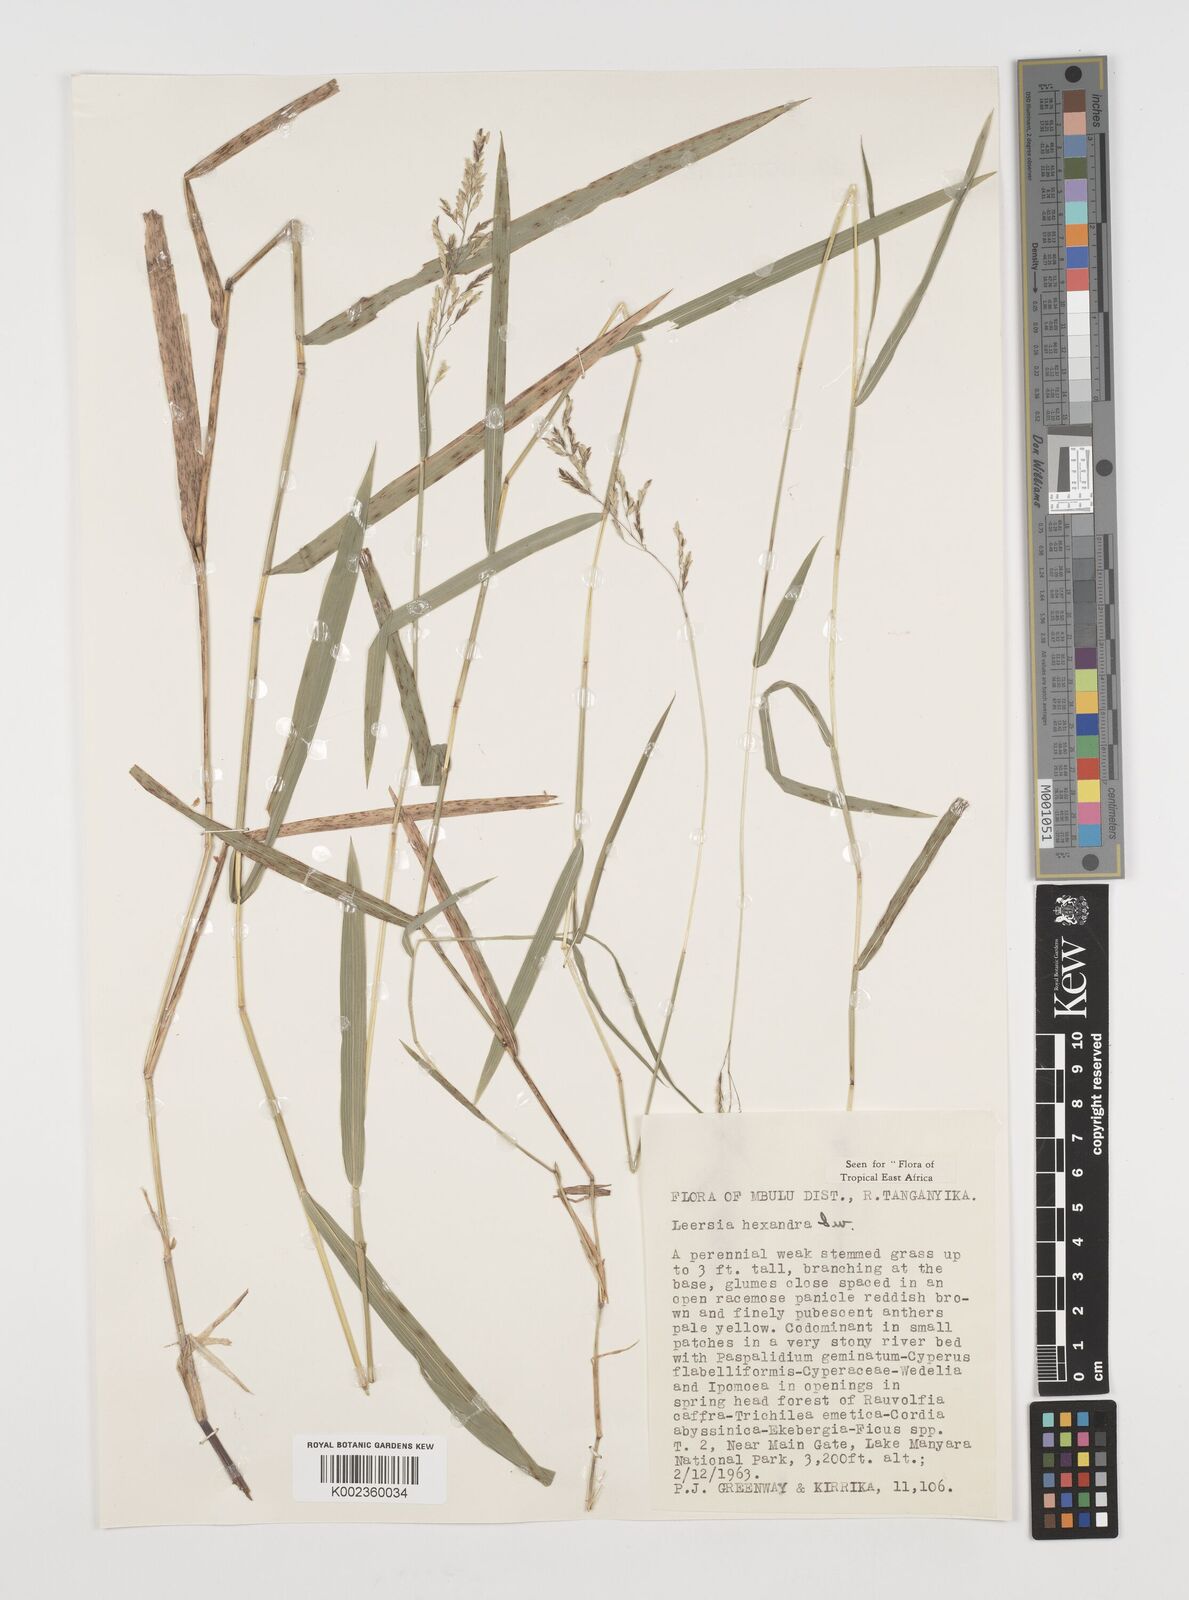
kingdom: Plantae
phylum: Tracheophyta
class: Liliopsida
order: Poales
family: Poaceae
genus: Leersia
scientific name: Leersia hexandra
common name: Southern cut grass
